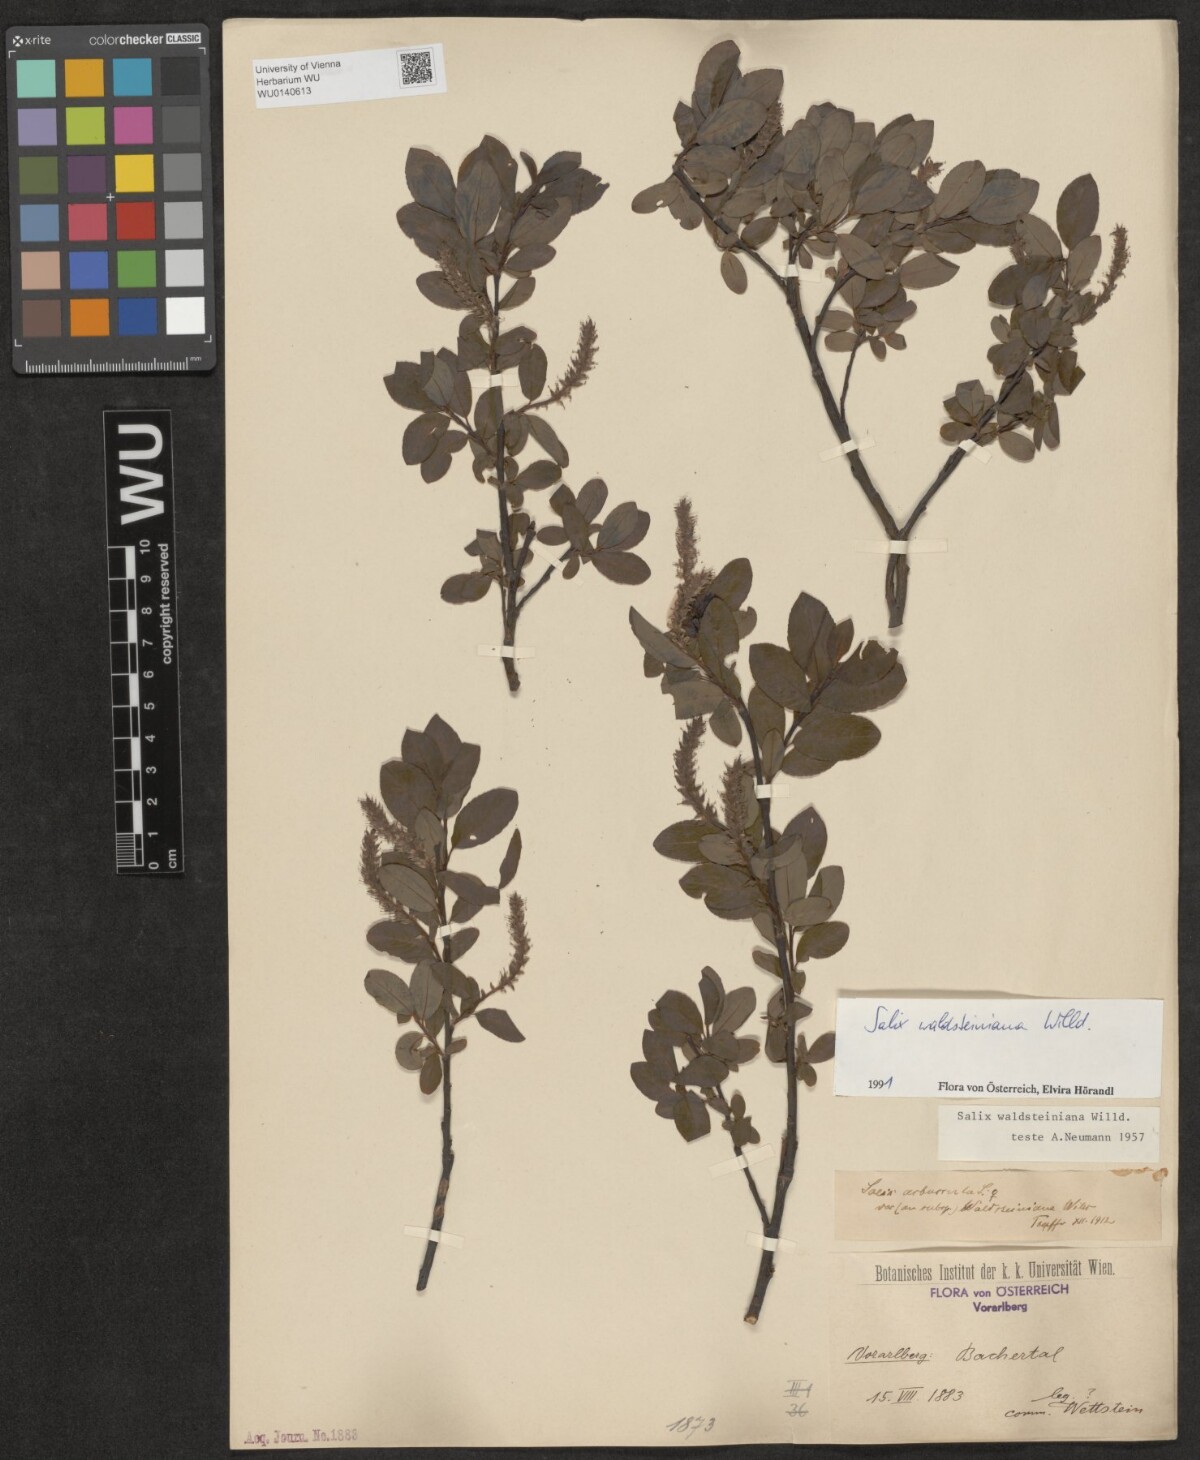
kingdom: Plantae
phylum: Tracheophyta
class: Magnoliopsida
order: Malpighiales
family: Salicaceae
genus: Salix
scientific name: Salix waldsteiniana
